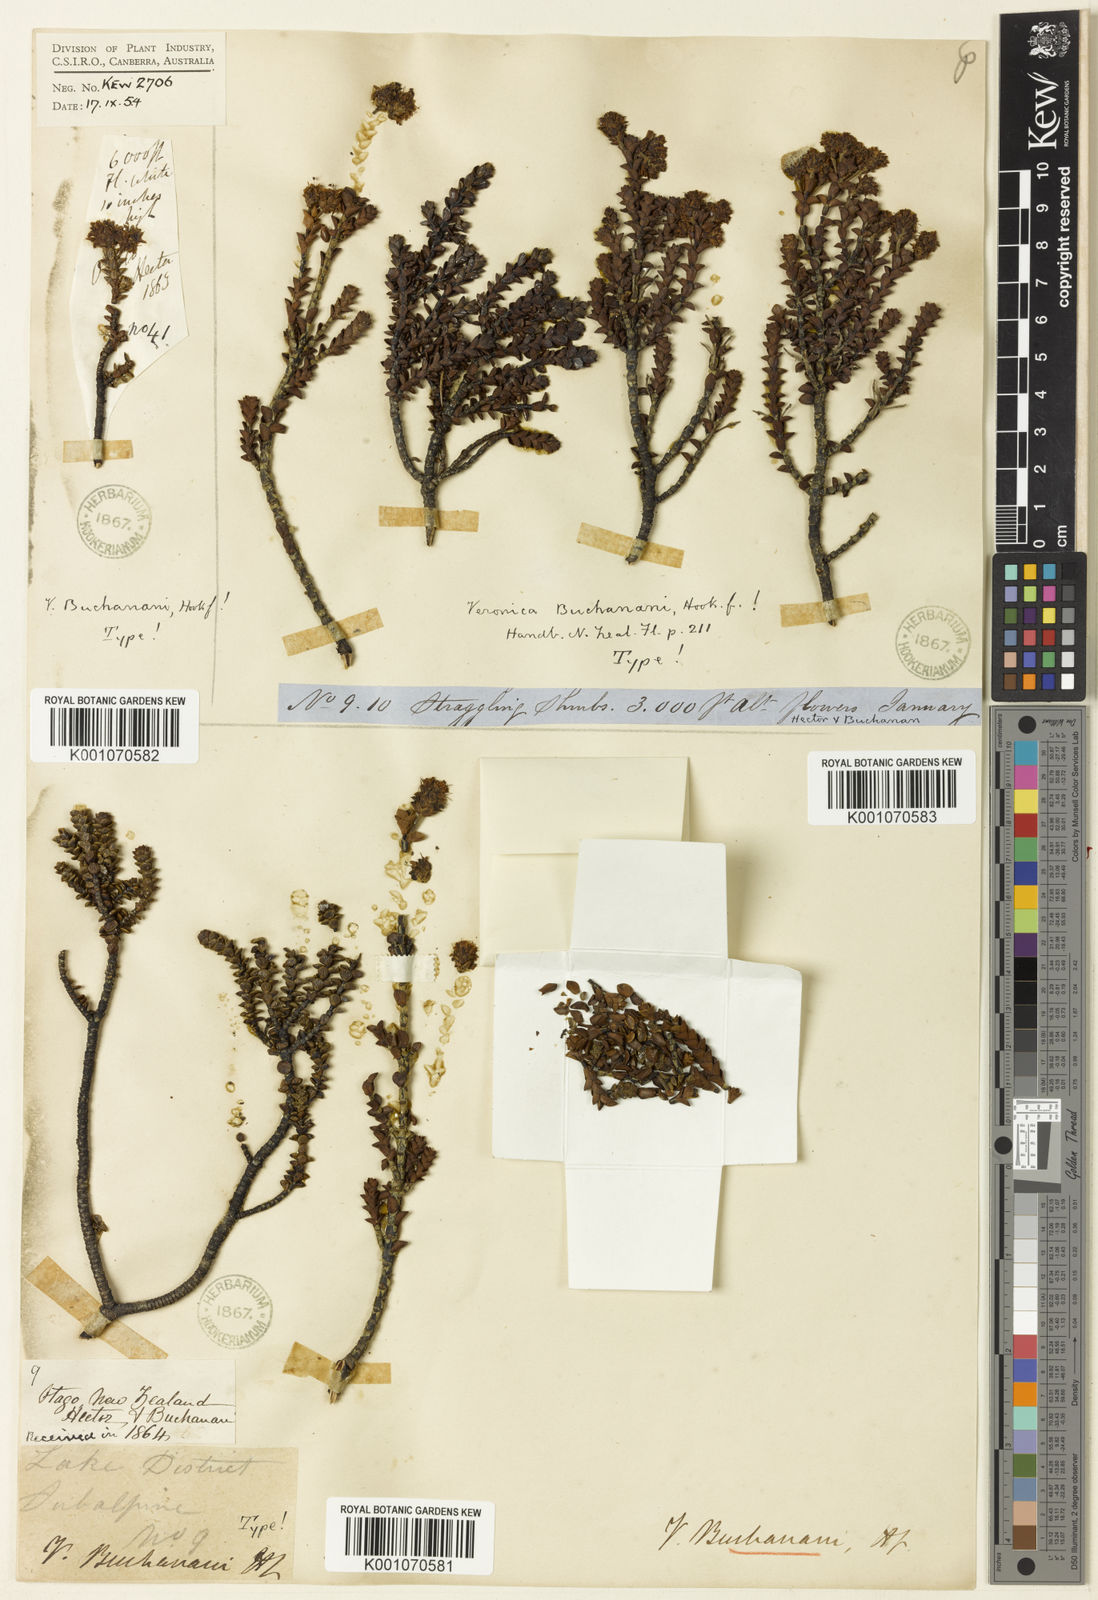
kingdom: Plantae
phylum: Tracheophyta
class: Magnoliopsida
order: Lamiales
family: Plantaginaceae
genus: Veronica
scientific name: Veronica buchananii
